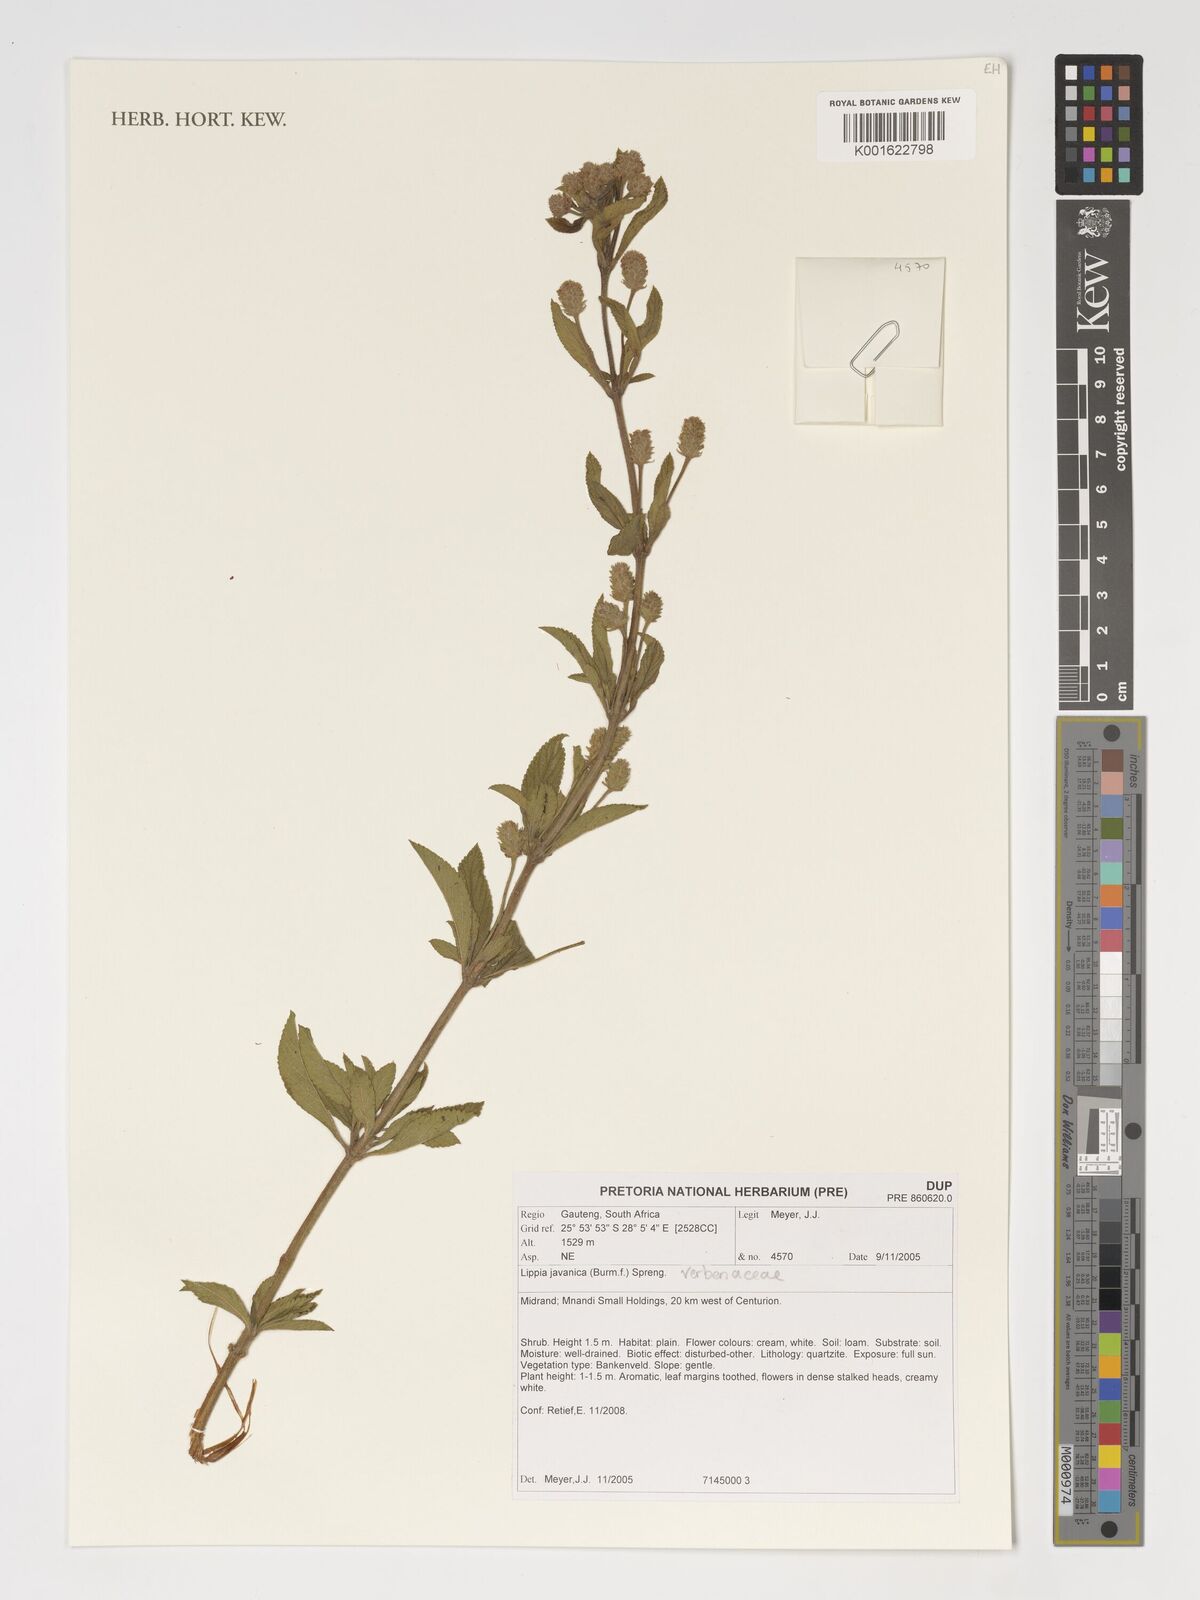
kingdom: Plantae
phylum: Tracheophyta
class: Magnoliopsida
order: Lamiales
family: Verbenaceae
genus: Lippia
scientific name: Lippia javanica
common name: Lemonbush
